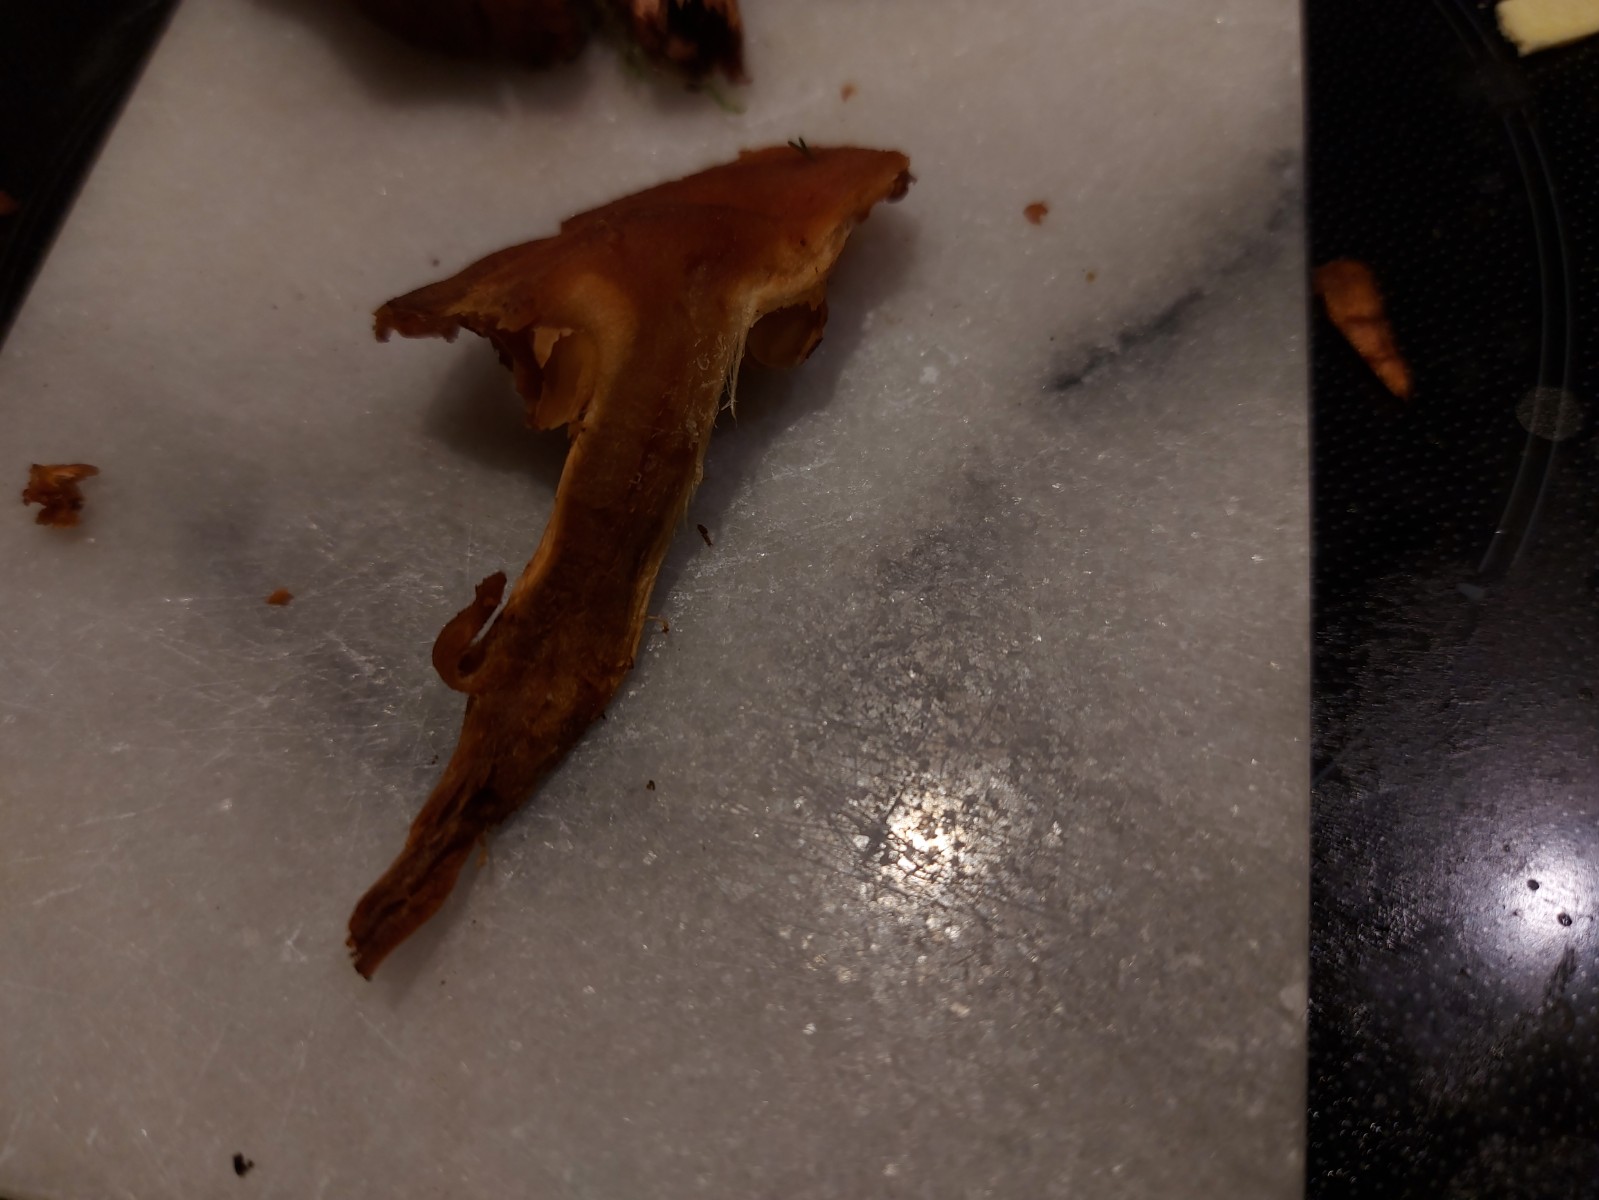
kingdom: Fungi
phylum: Basidiomycota
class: Agaricomycetes
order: Agaricales
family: Cortinariaceae
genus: Cortinarius
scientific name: Cortinarius sanguineus
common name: blodrød slørhat
